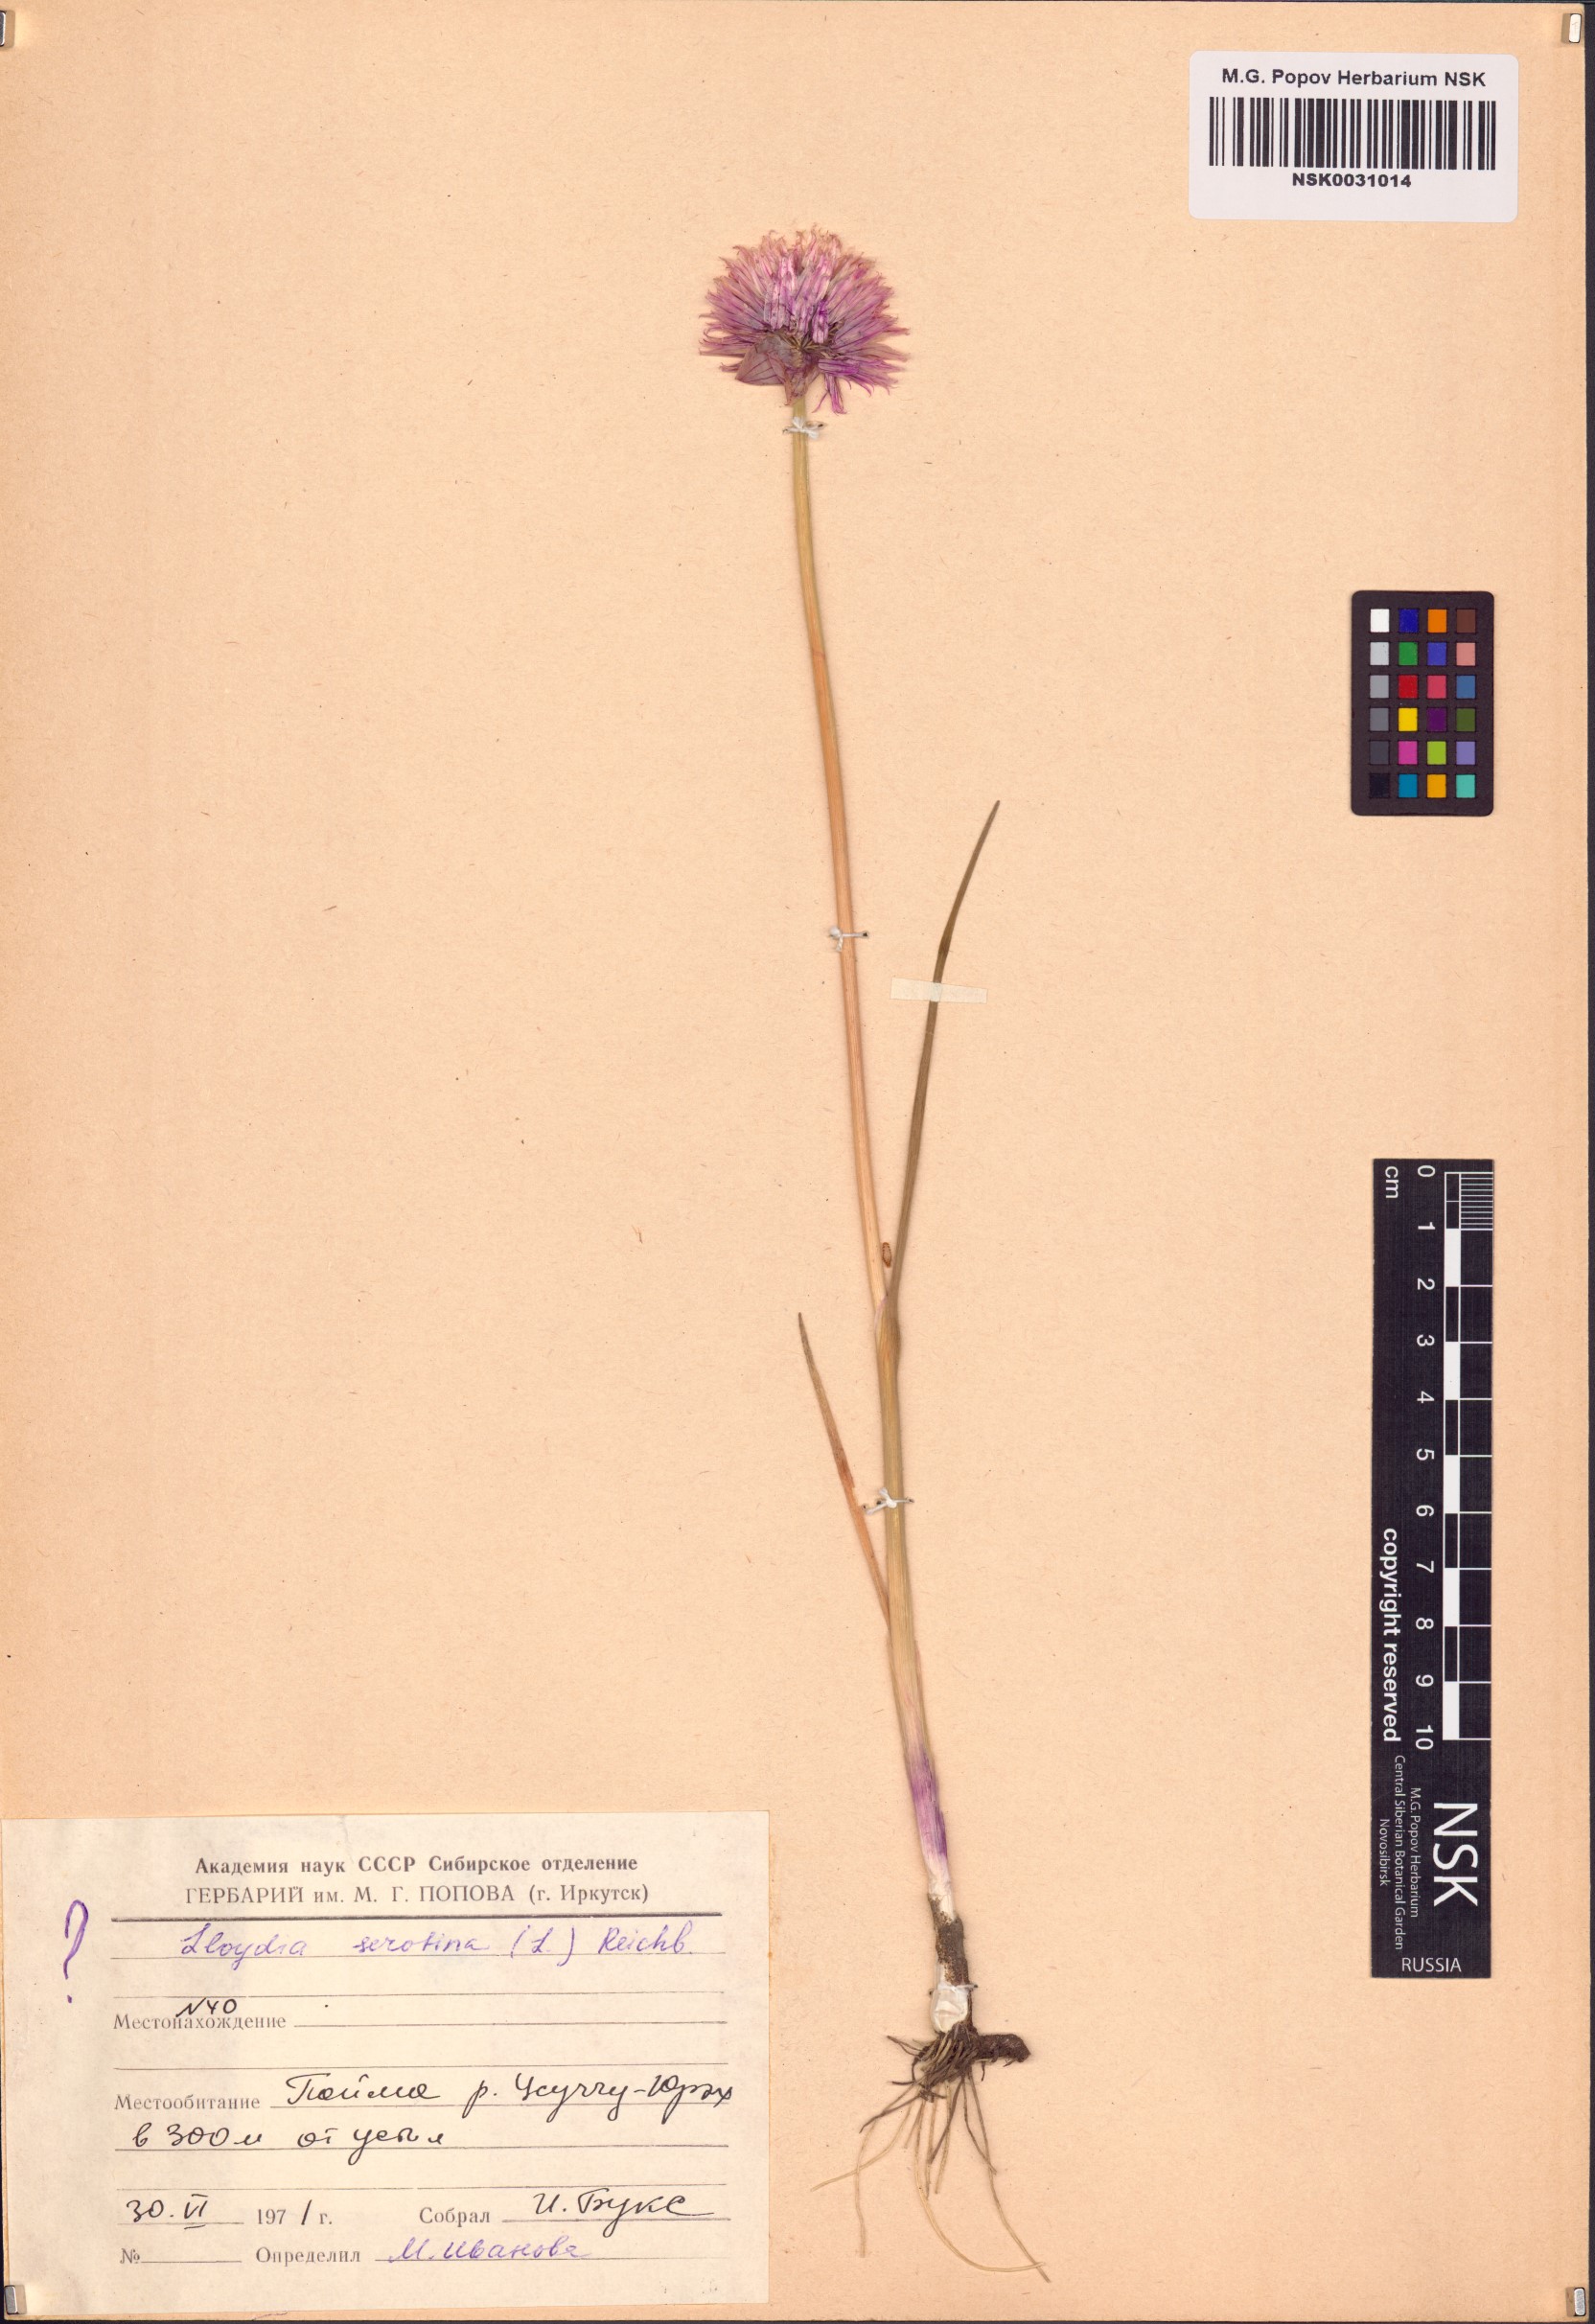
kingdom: Plantae
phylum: Tracheophyta
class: Liliopsida
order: Asparagales
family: Amaryllidaceae
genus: Allium
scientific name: Allium schoenoprasum
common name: Chives
